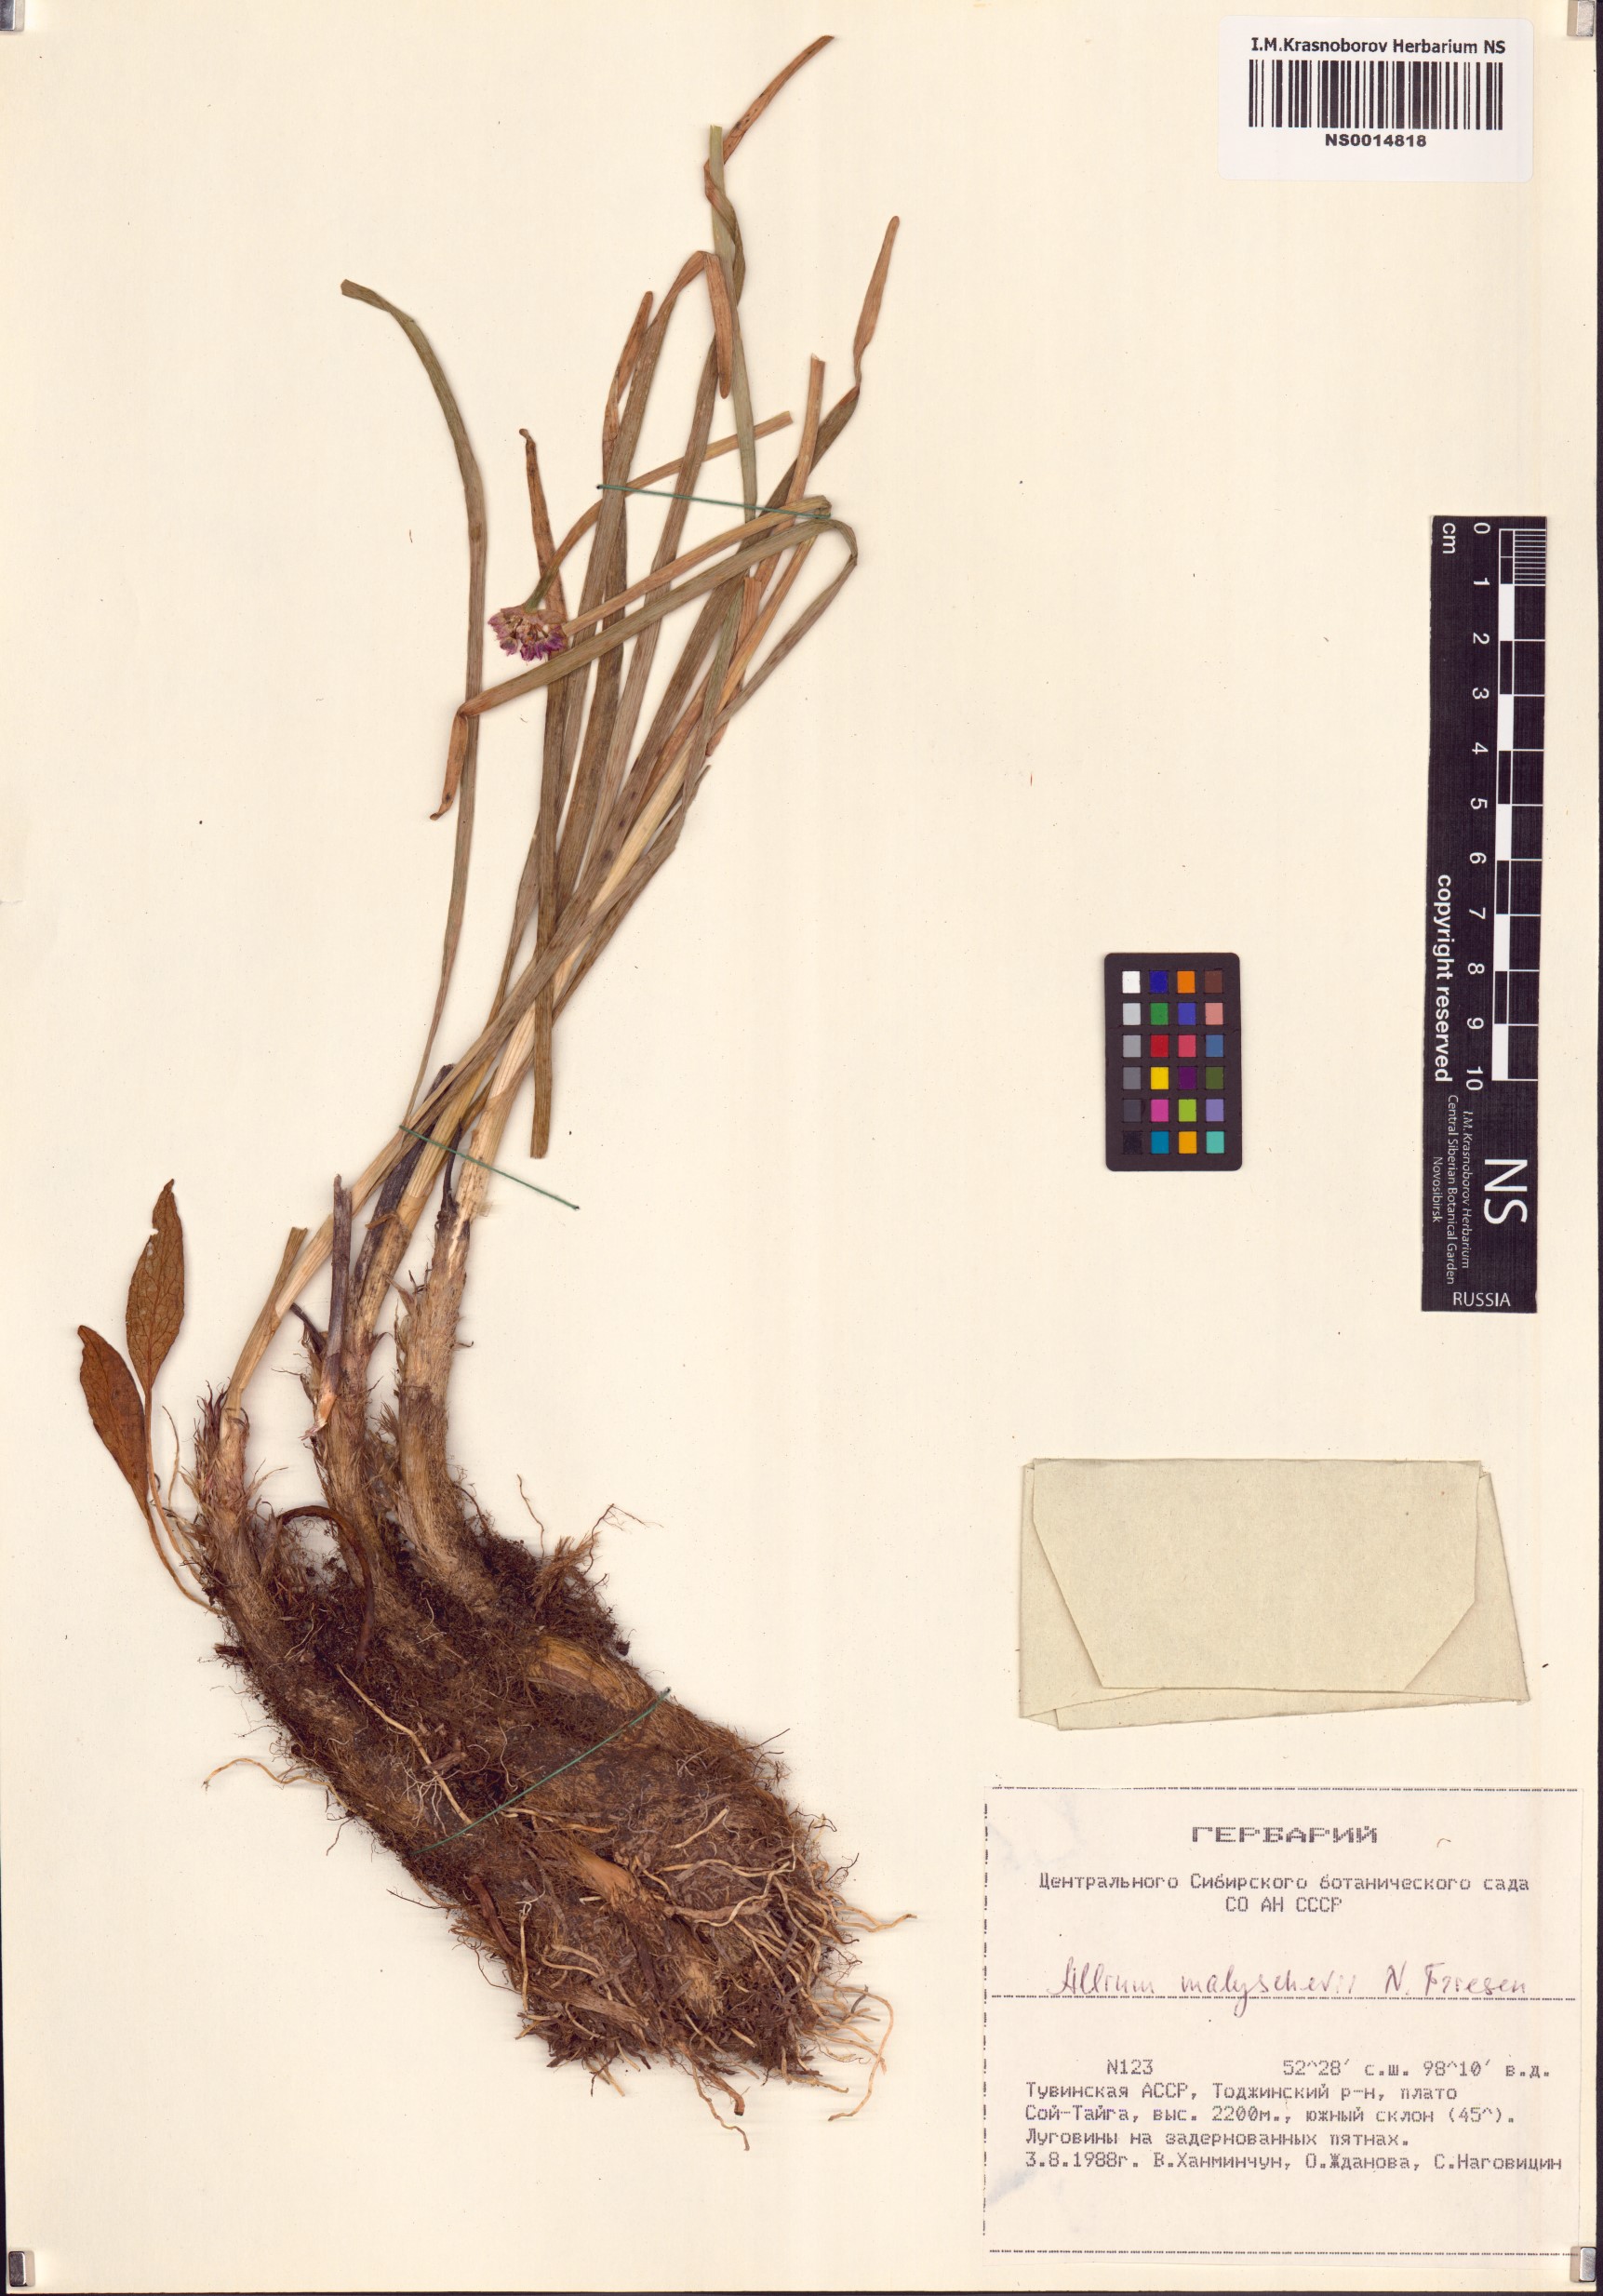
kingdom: Plantae
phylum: Tracheophyta
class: Liliopsida
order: Asparagales
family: Amaryllidaceae
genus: Allium
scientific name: Allium malyschevii
